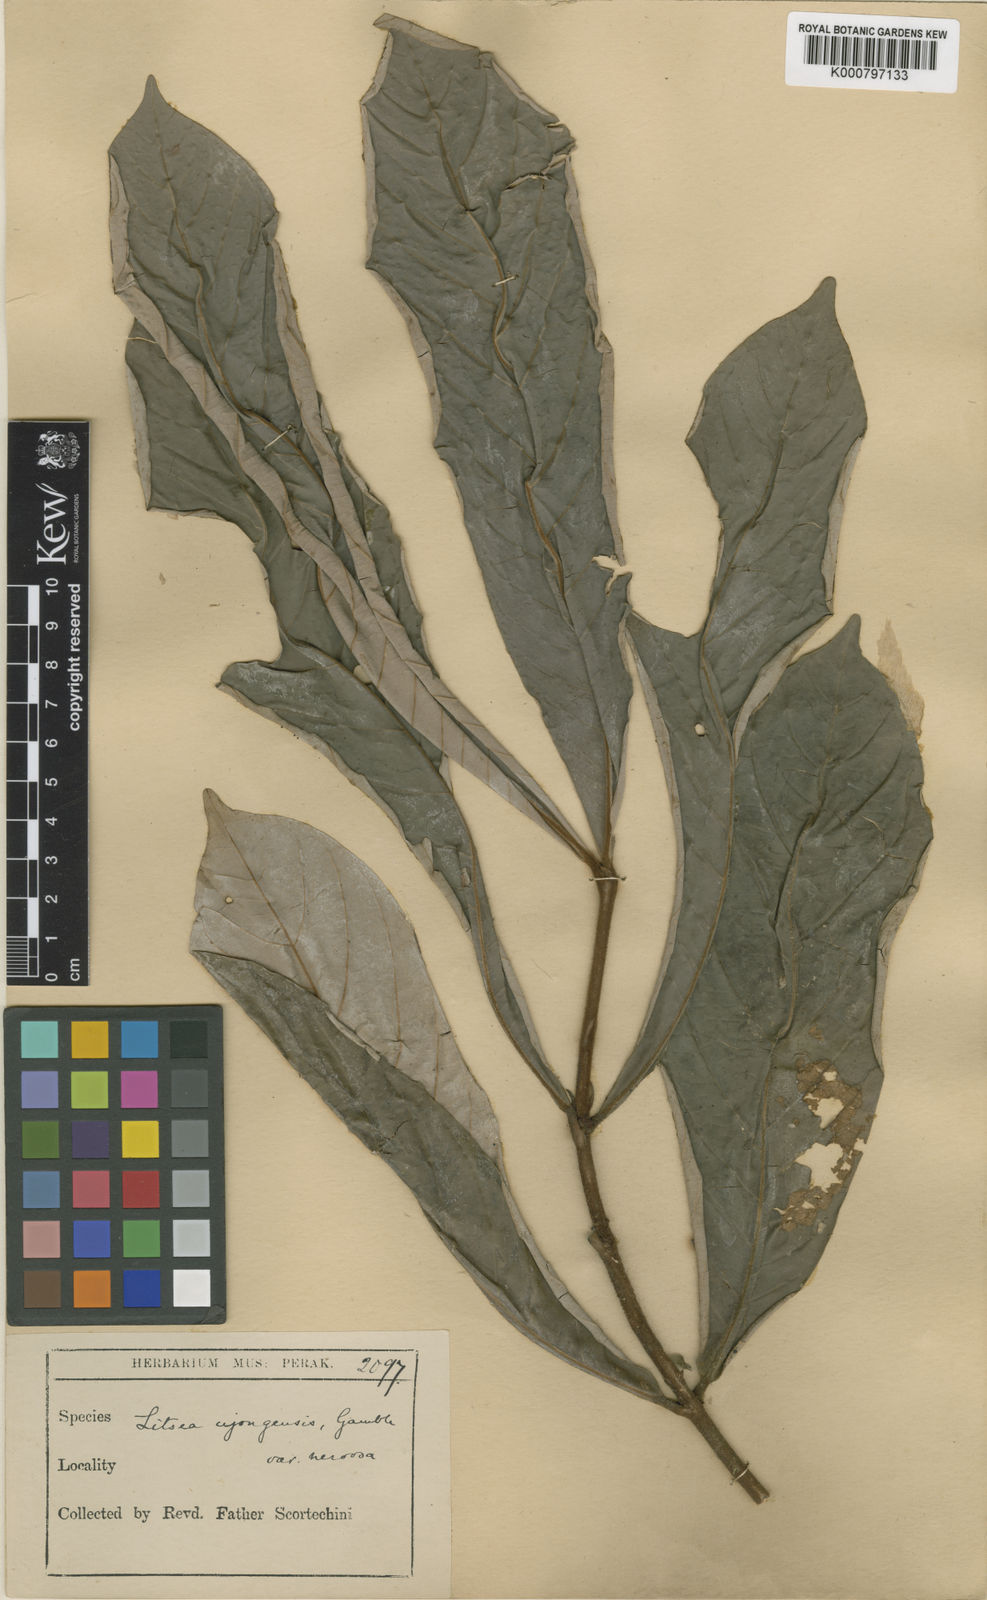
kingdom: Plantae
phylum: Tracheophyta
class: Magnoliopsida
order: Laurales
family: Lauraceae
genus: Litsea
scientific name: Litsea sessiliflora
